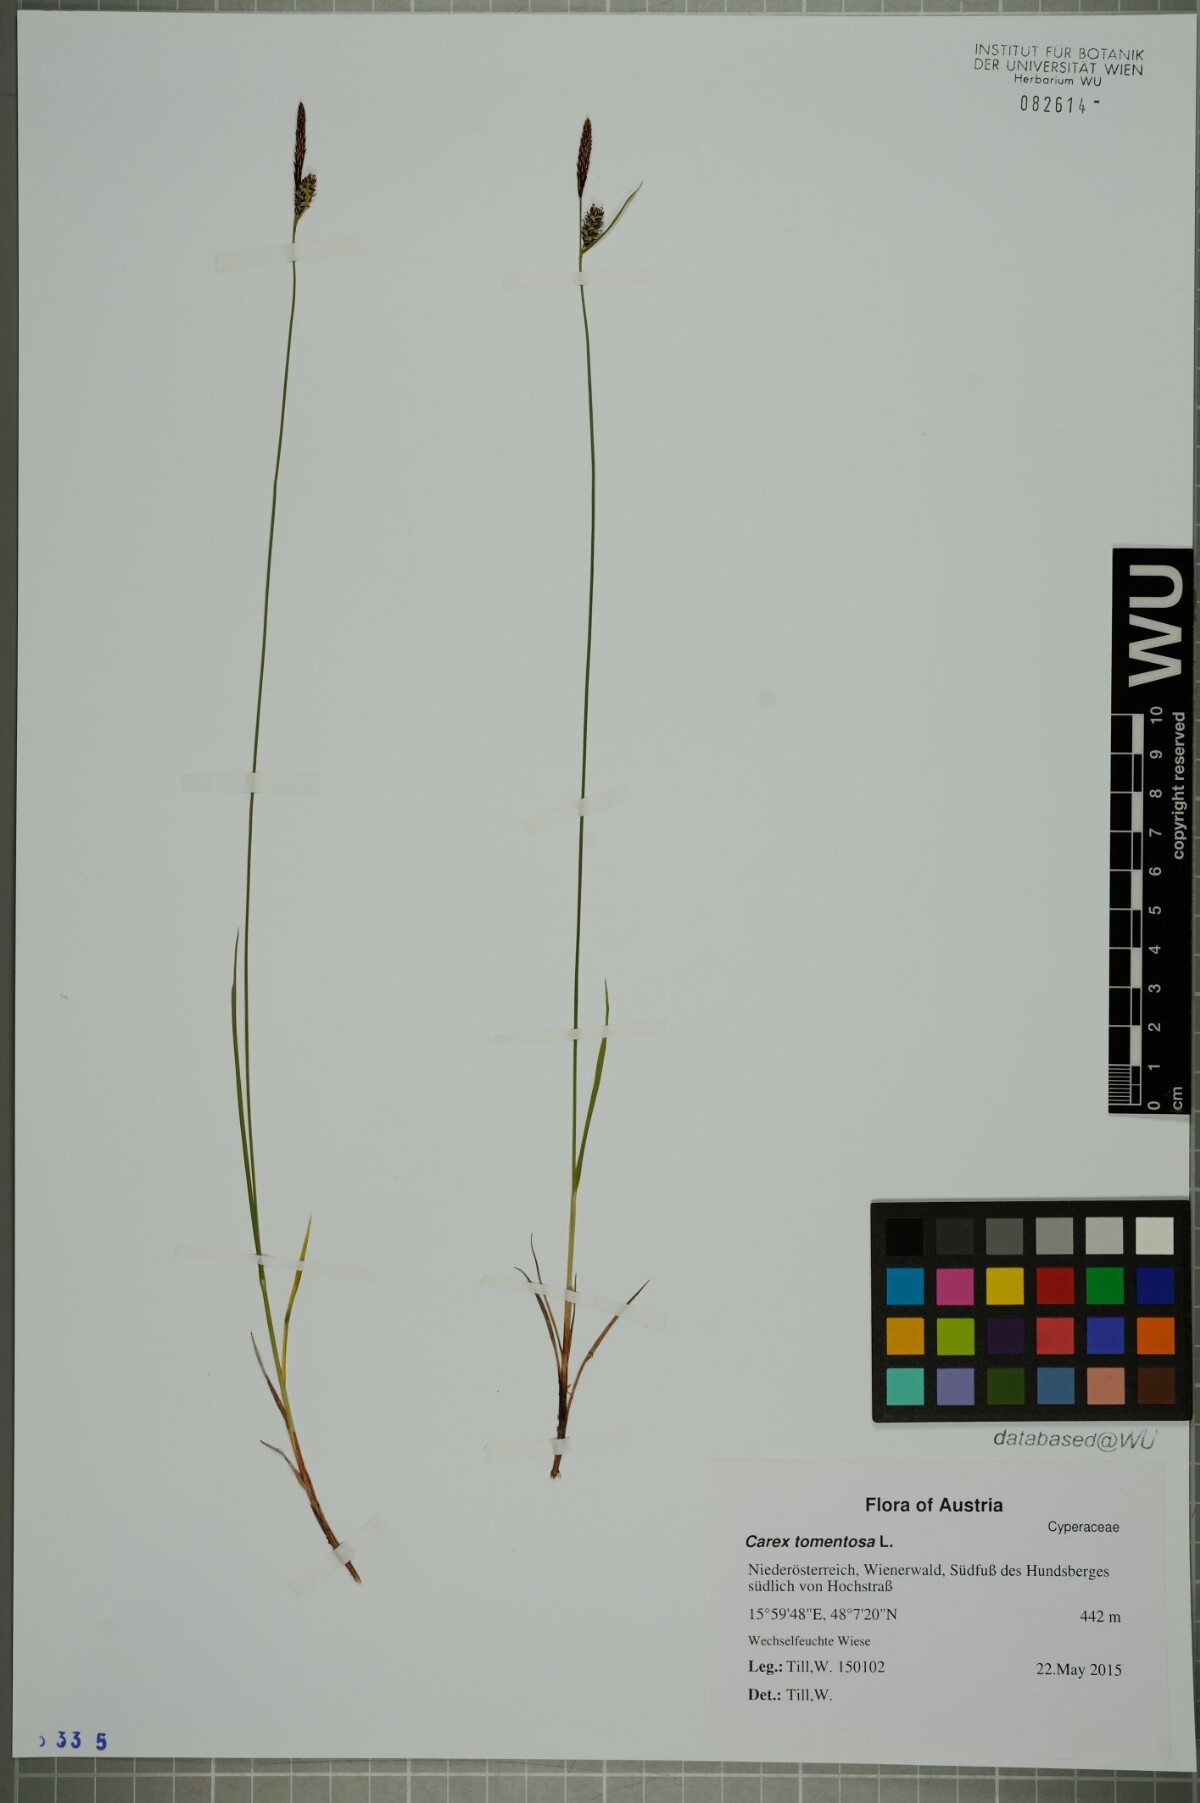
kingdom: Plantae
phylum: Tracheophyta
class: Liliopsida
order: Poales
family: Cyperaceae
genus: Carex
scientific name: Carex tomentosa
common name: Downy-fruited sedge
